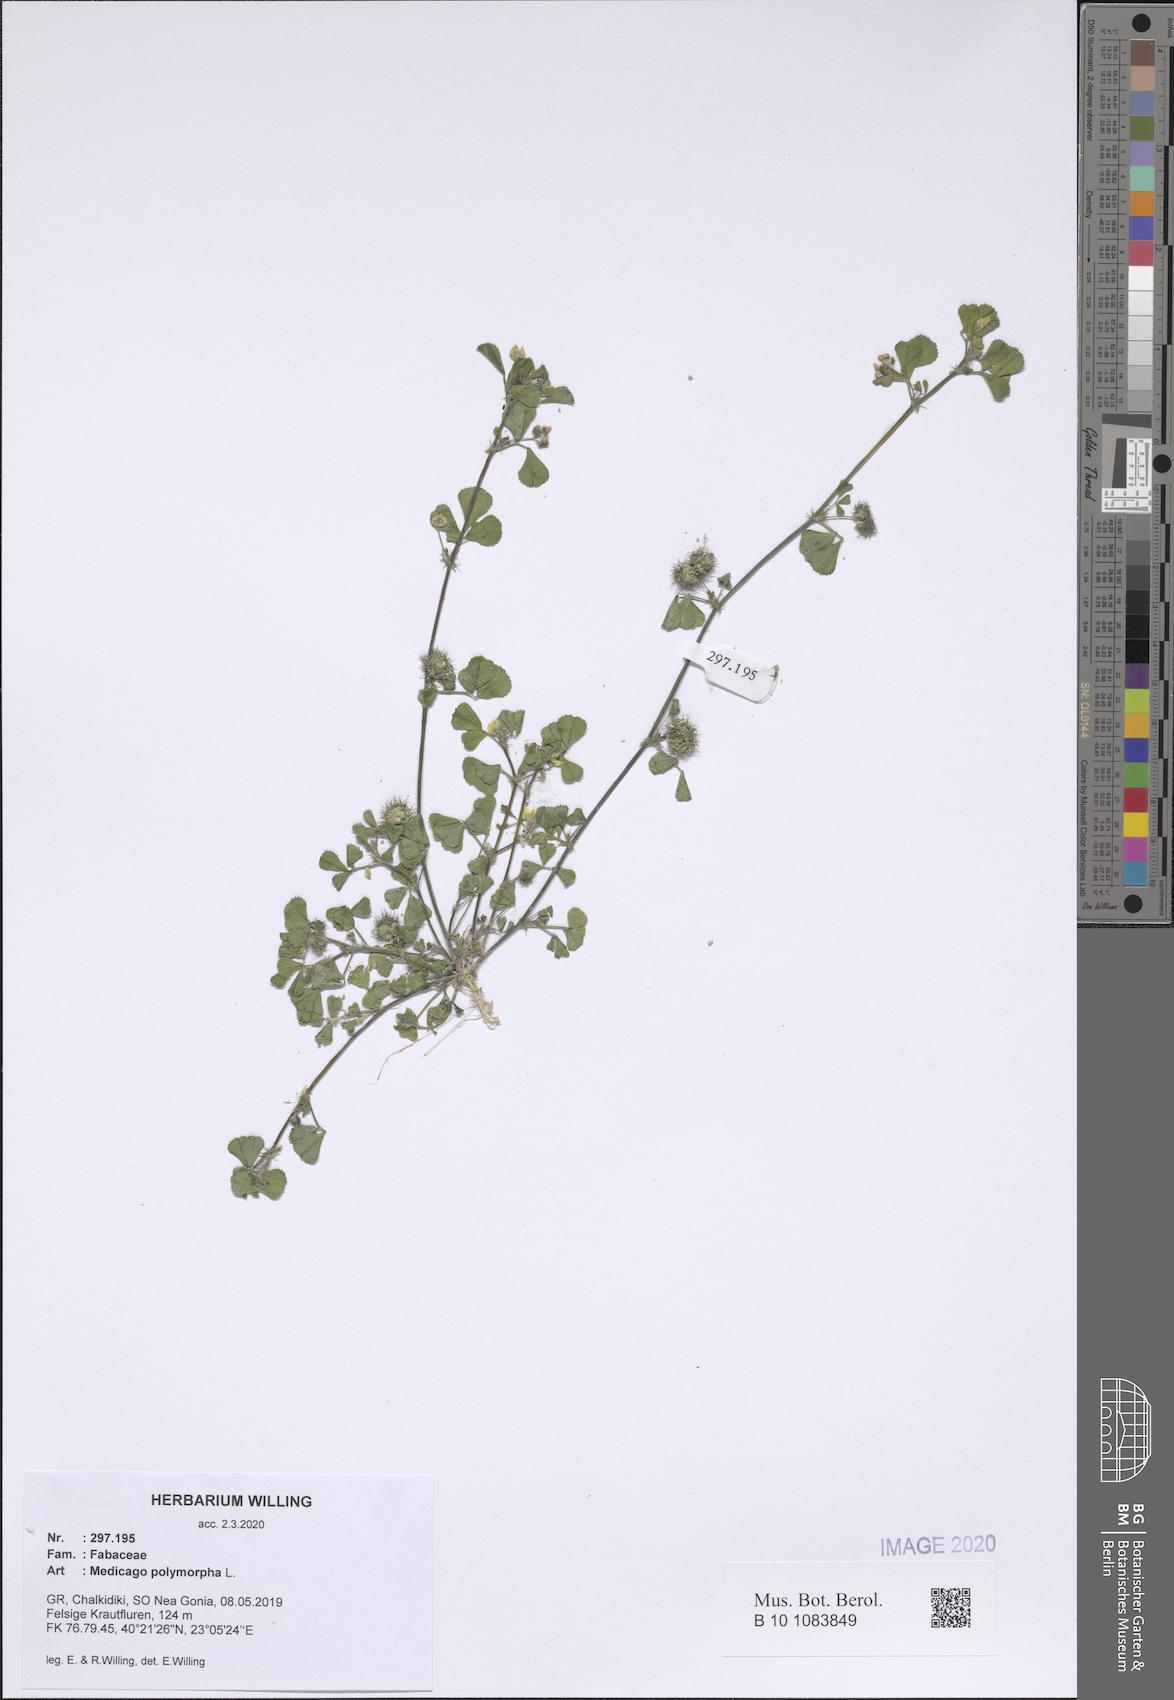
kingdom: Plantae
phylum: Tracheophyta
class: Magnoliopsida
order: Fabales
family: Fabaceae
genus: Medicago
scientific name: Medicago polymorpha
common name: Burclover
